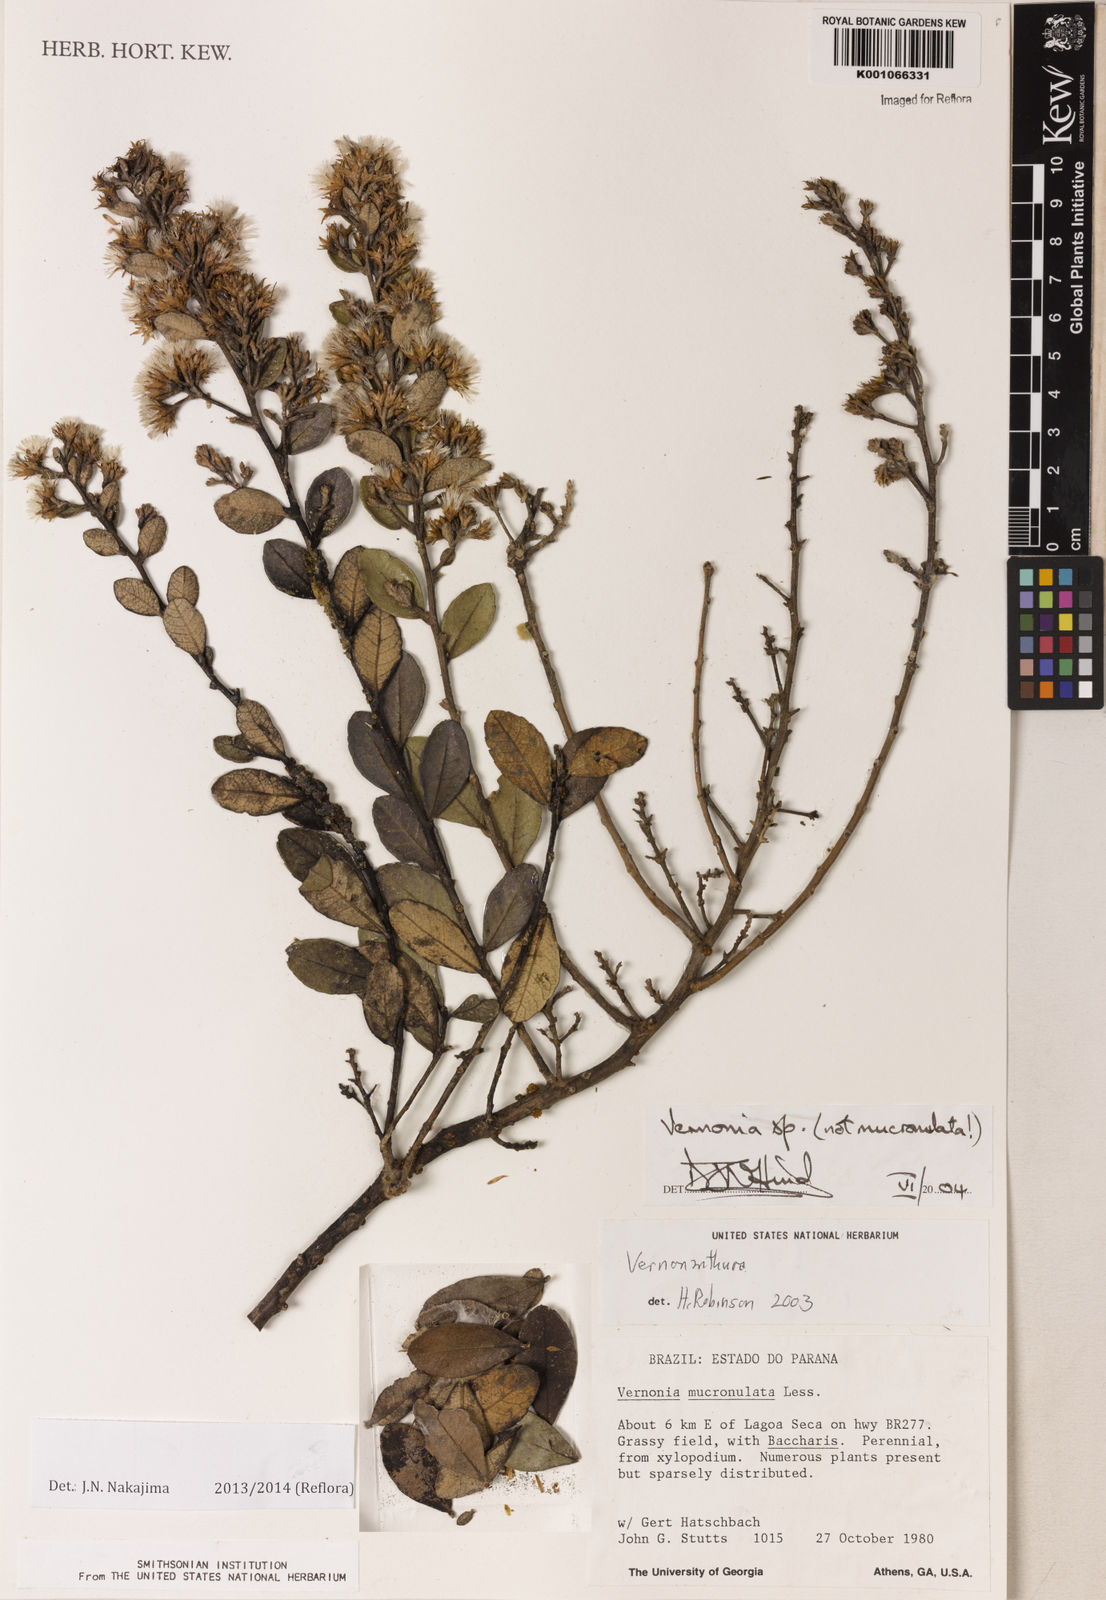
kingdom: Plantae
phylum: Tracheophyta
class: Magnoliopsida
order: Asterales
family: Asteraceae
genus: Vernonanthura
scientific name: Vernonanthura mucronulata
